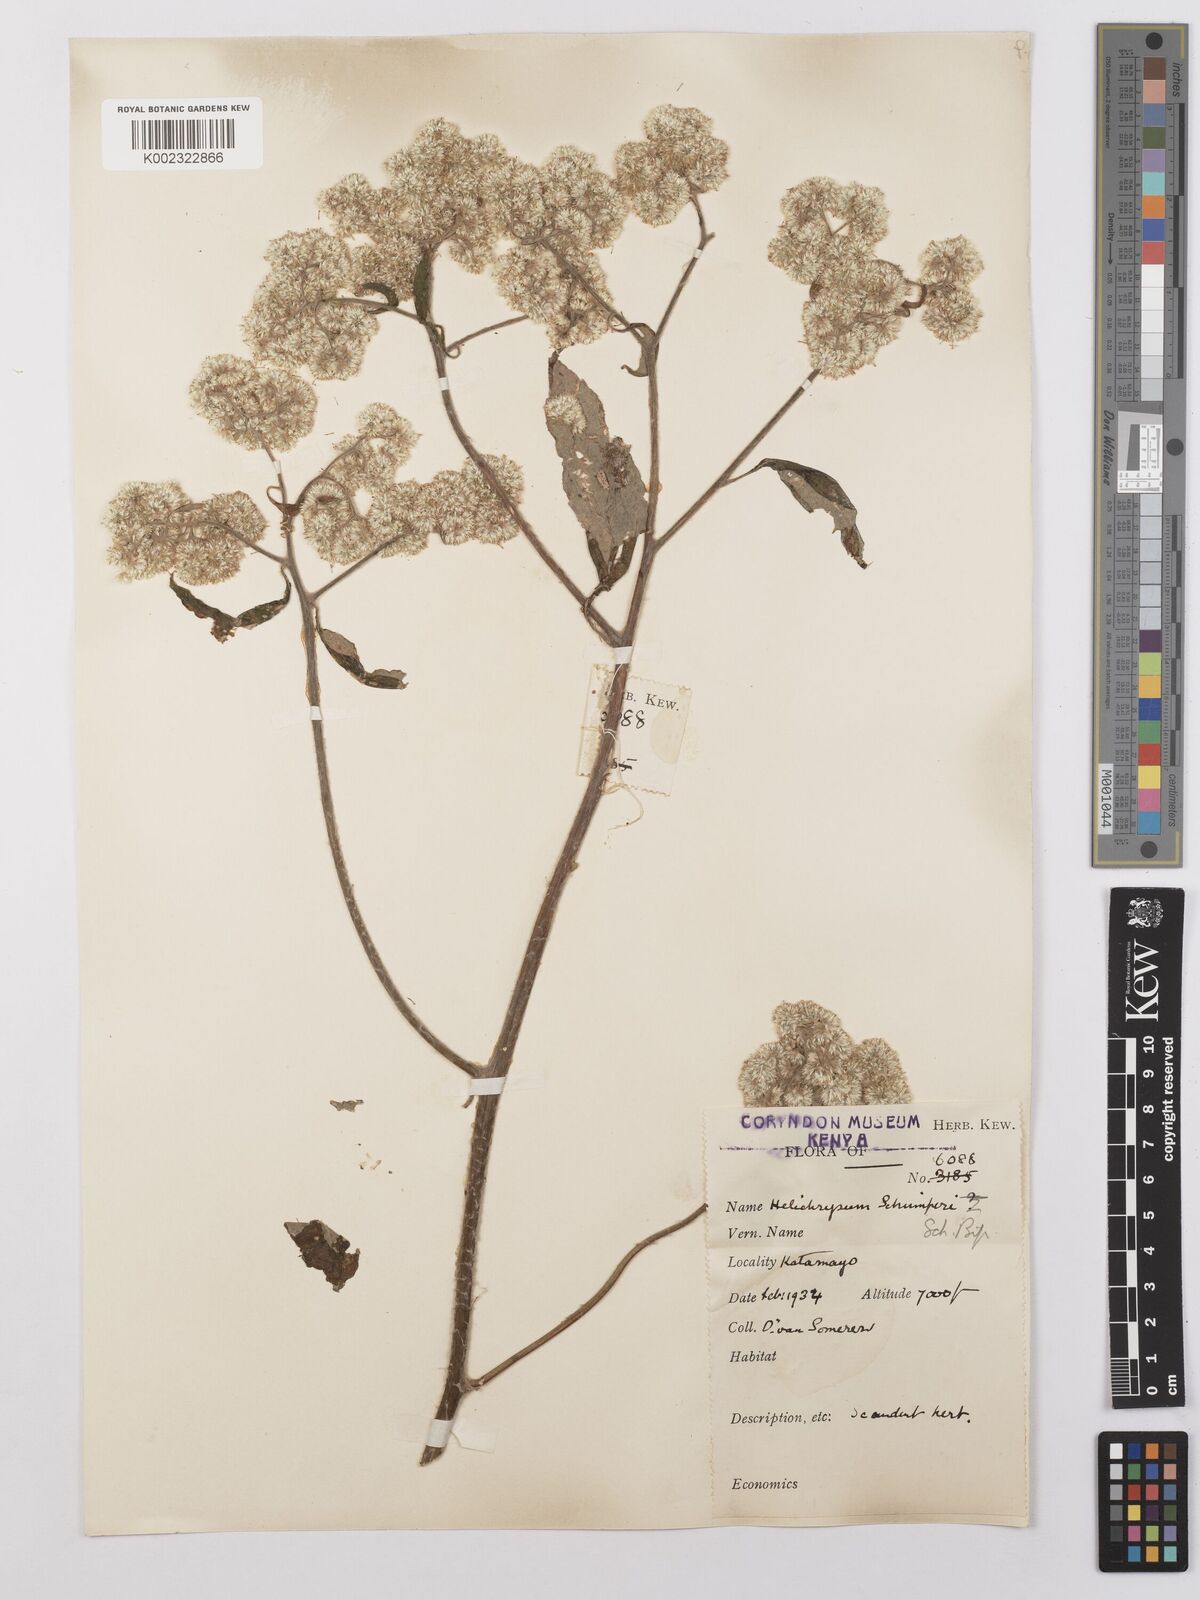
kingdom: Plantae
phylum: Tracheophyta
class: Magnoliopsida
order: Asterales
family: Asteraceae
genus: Helichrysum
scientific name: Helichrysum schimperi
